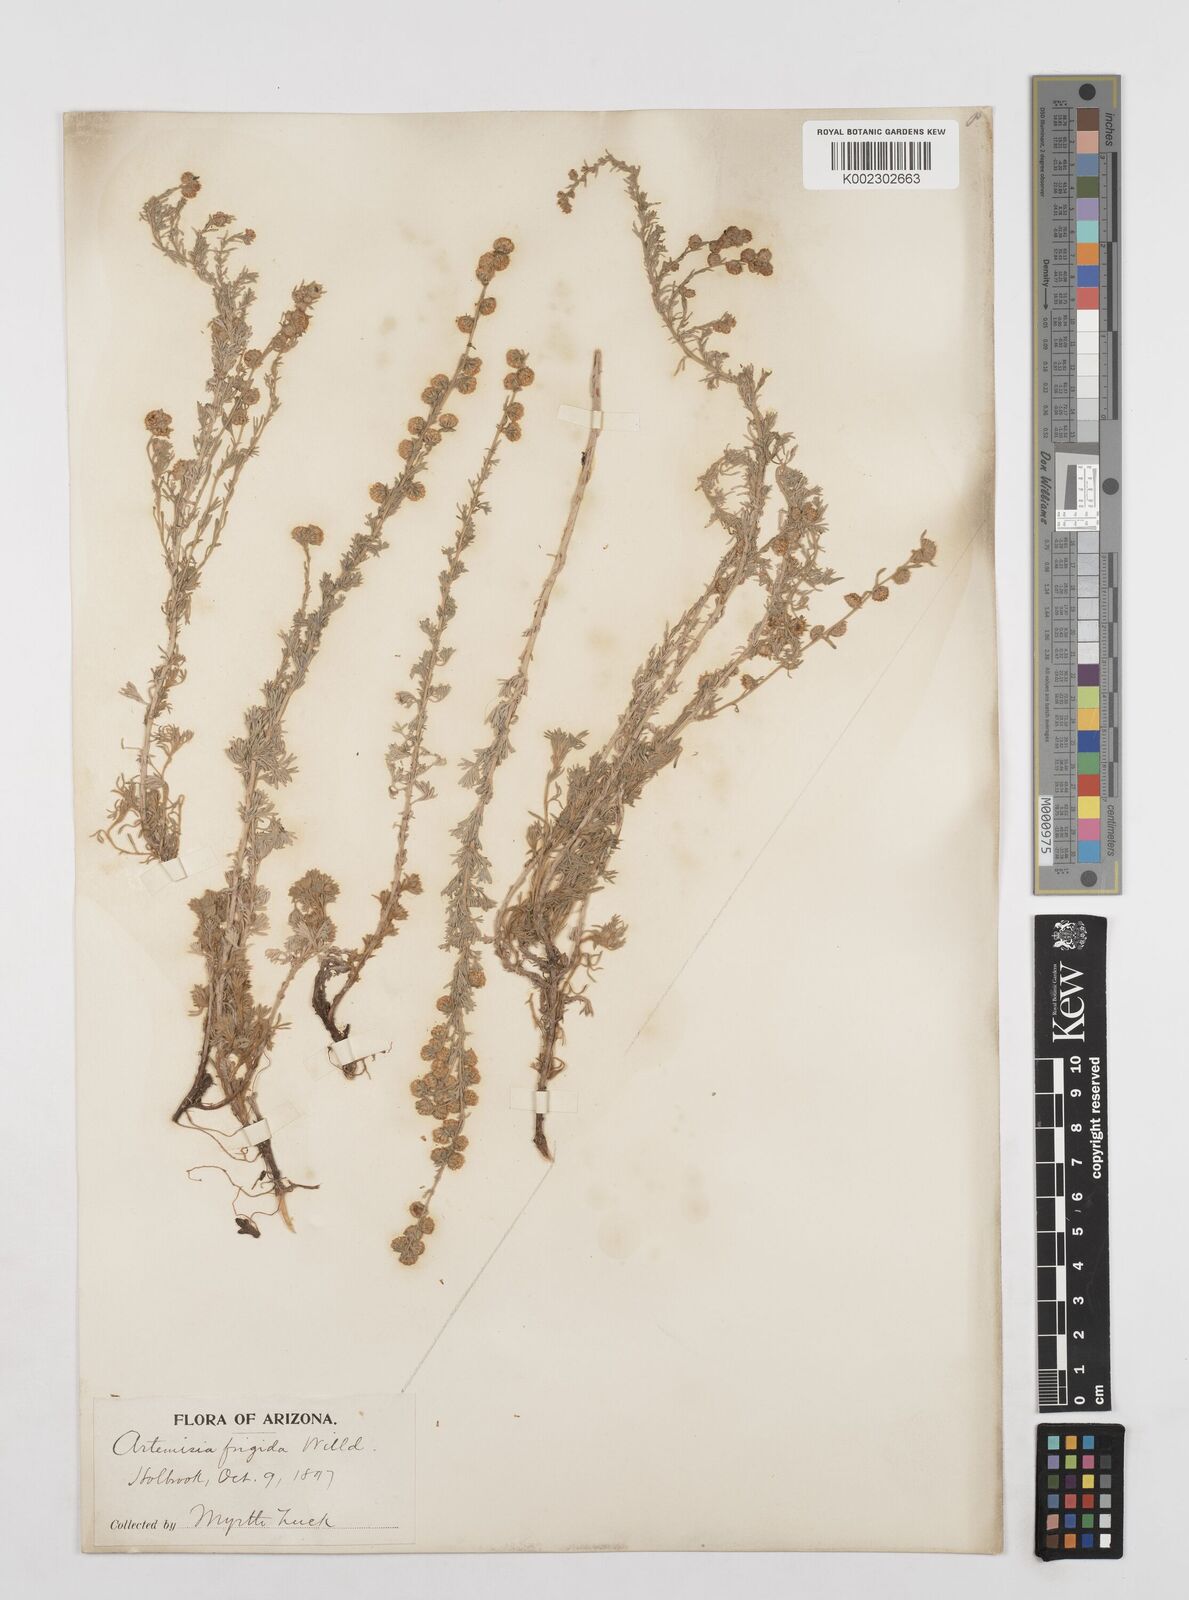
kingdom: Plantae
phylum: Tracheophyta
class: Magnoliopsida
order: Asterales
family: Asteraceae
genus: Artemisia
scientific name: Artemisia frigida
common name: Prairie sagewort
